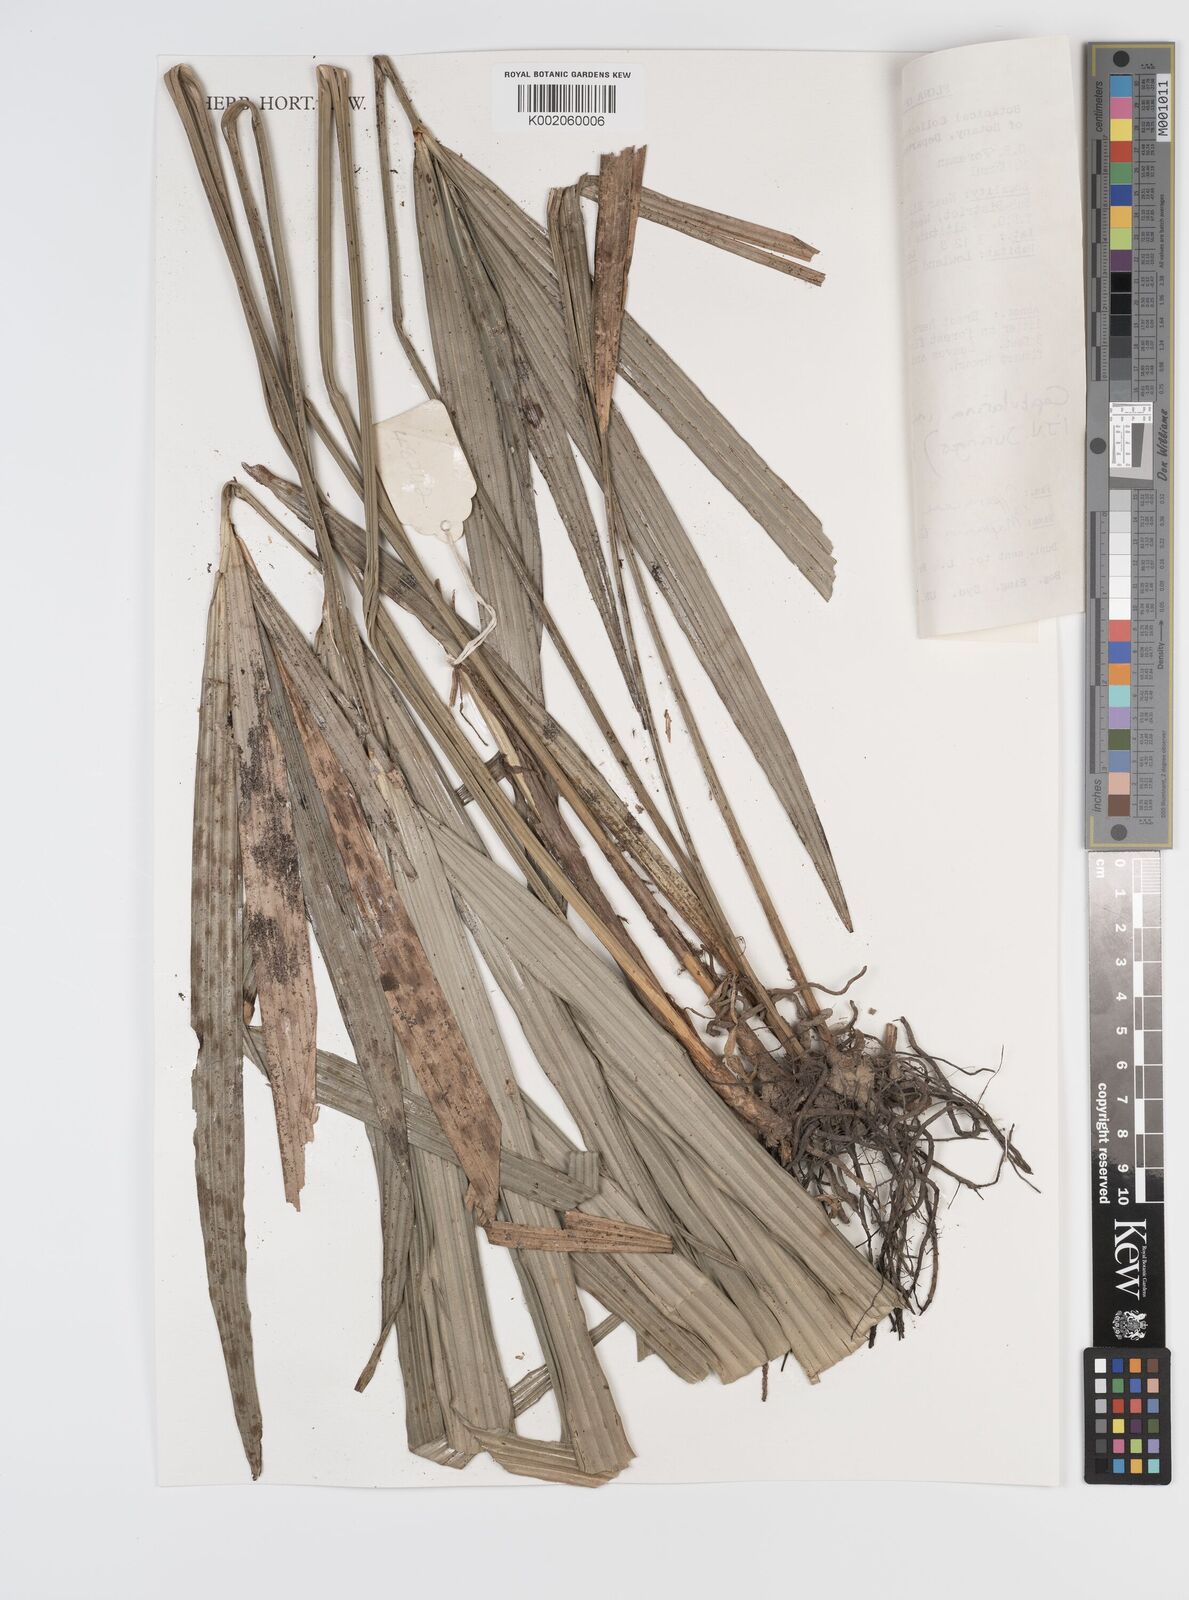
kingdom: Plantae
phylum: Tracheophyta
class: Liliopsida
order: Poales
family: Cyperaceae
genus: Capitularina
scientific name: Capitularina involucrata
